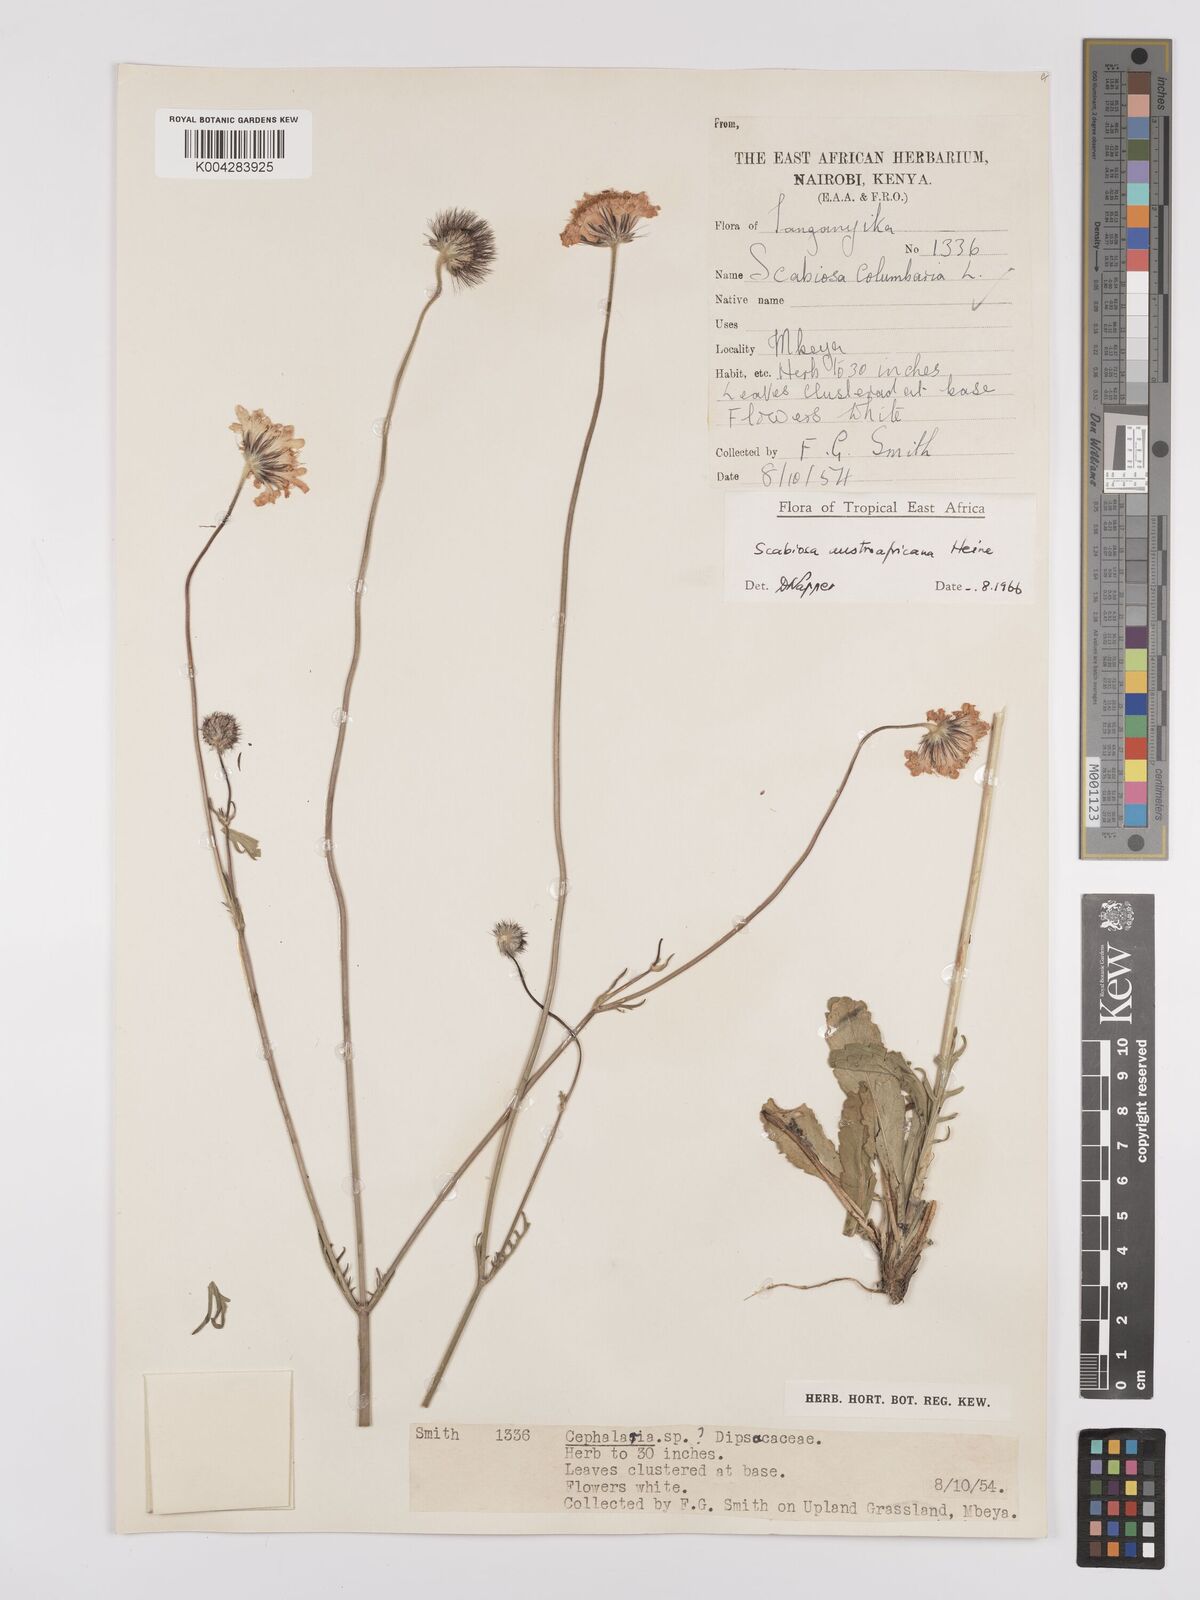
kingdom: Plantae
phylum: Tracheophyta
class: Magnoliopsida
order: Dipsacales
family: Caprifoliaceae
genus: Scabiosa
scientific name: Scabiosa austroafricana
